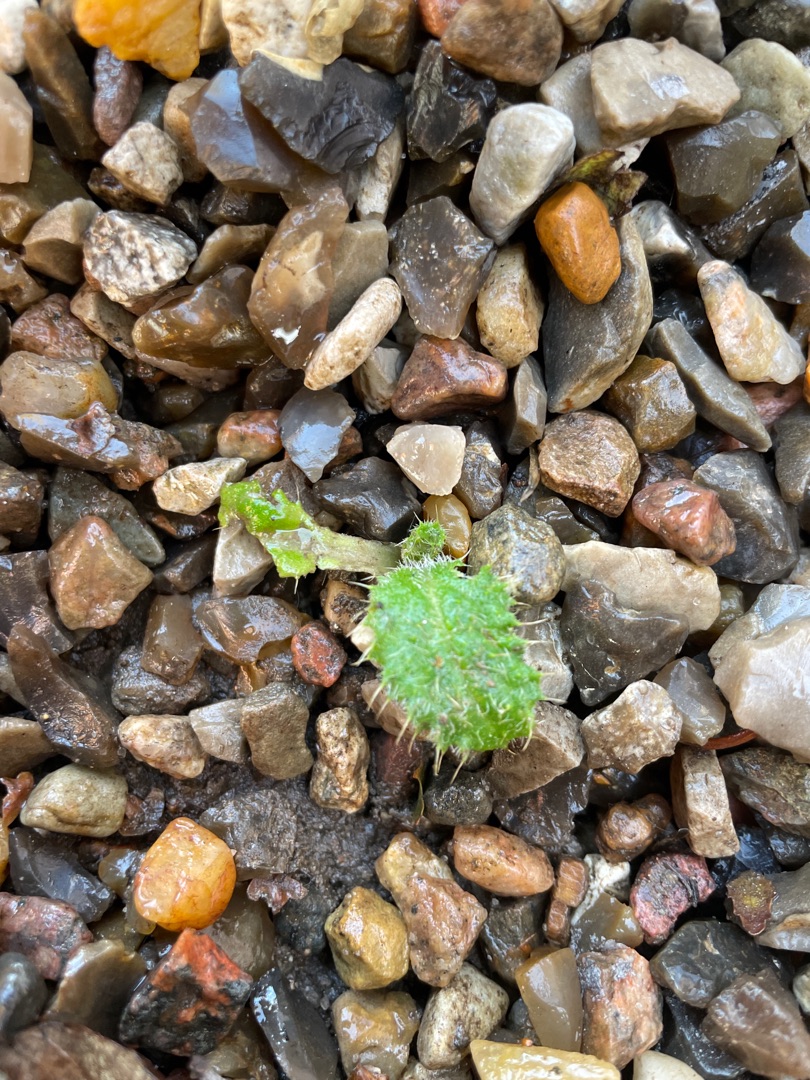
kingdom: Plantae
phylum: Tracheophyta
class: Magnoliopsida
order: Asterales
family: Asteraceae
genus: Cirsium
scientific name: Cirsium vulgare
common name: Horse-tidsel
